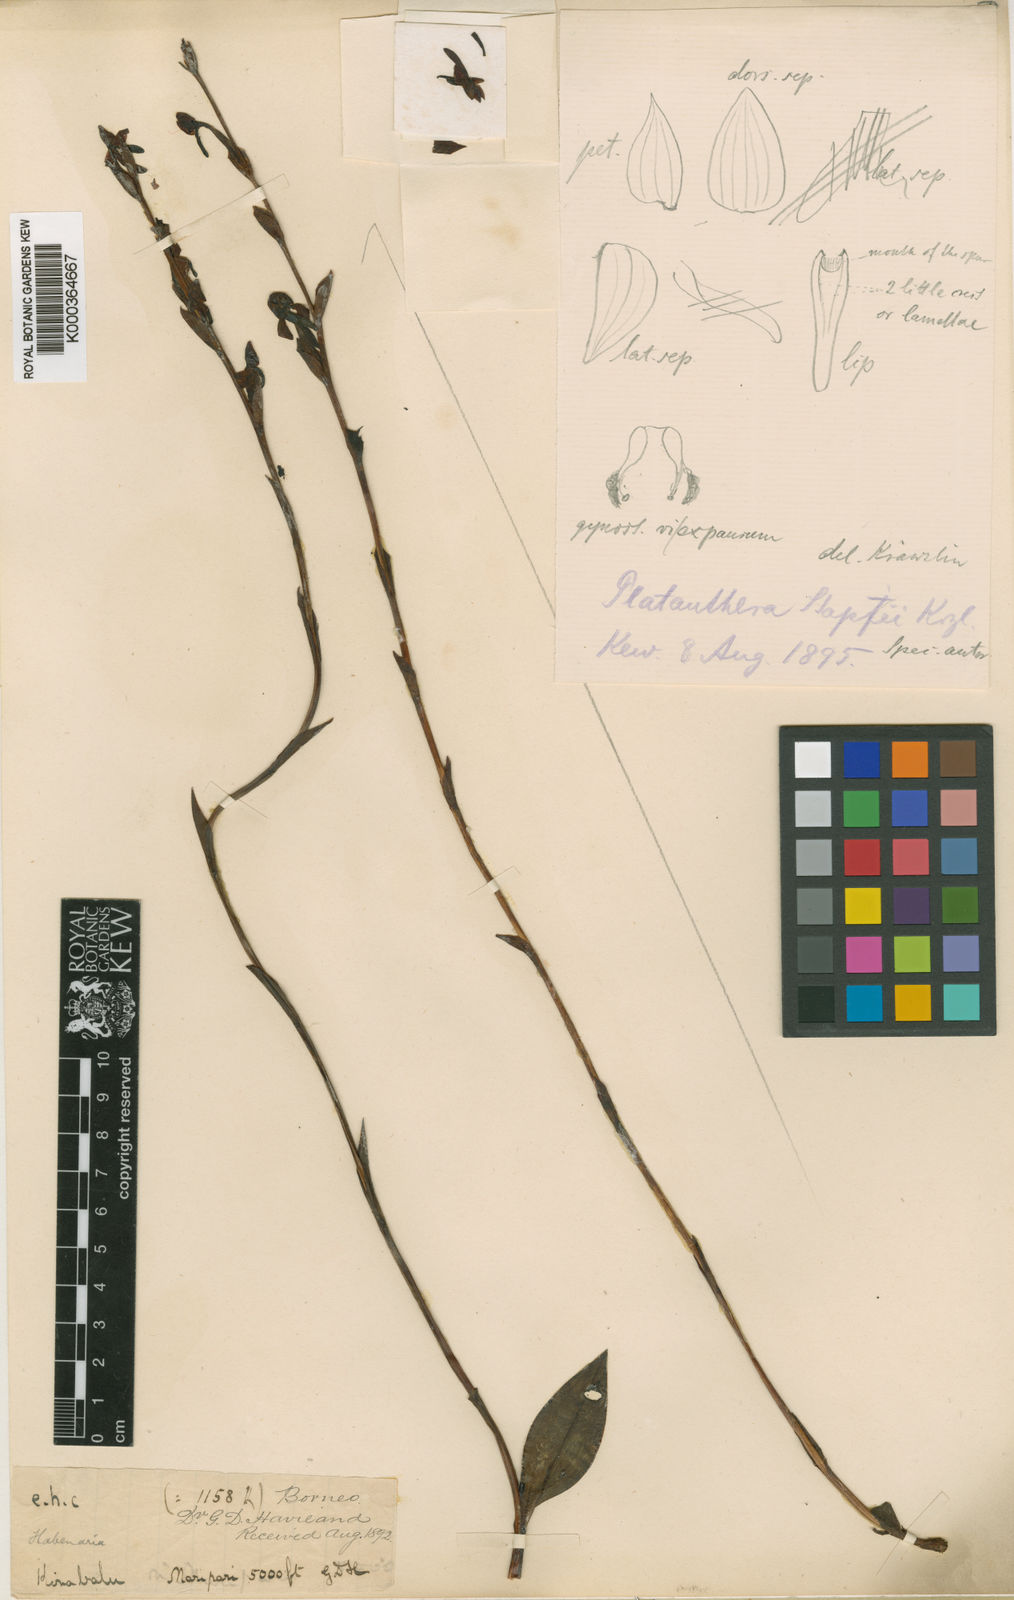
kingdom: Plantae
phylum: Tracheophyta
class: Liliopsida
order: Asparagales
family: Orchidaceae
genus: Platanthera
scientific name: Platanthera stapfii
